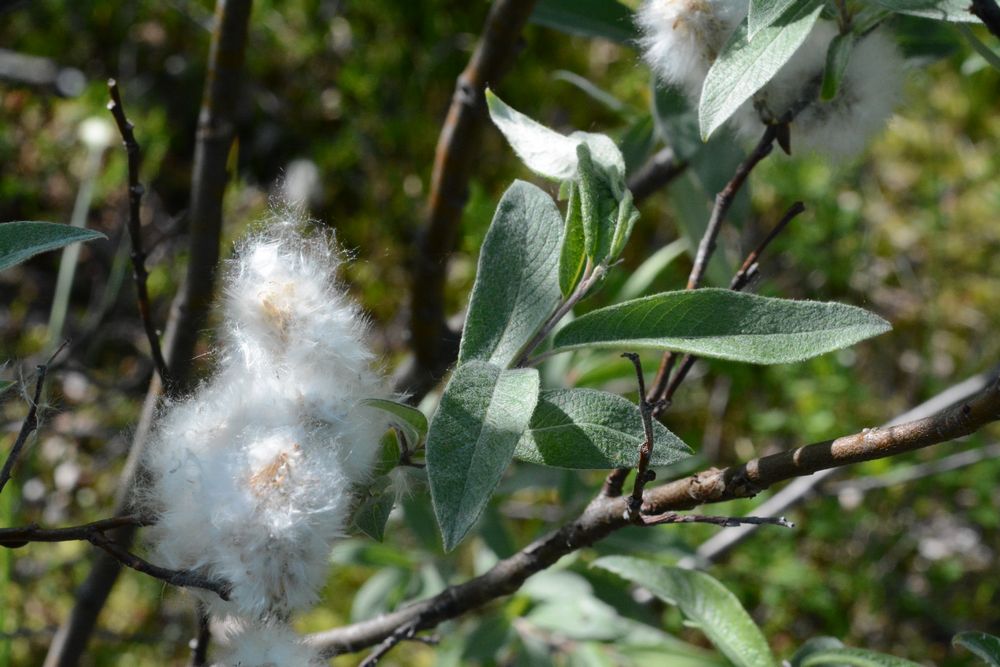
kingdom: Plantae
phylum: Tracheophyta
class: Magnoliopsida
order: Malpighiales
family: Salicaceae
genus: Salix
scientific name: Salix lapponum
